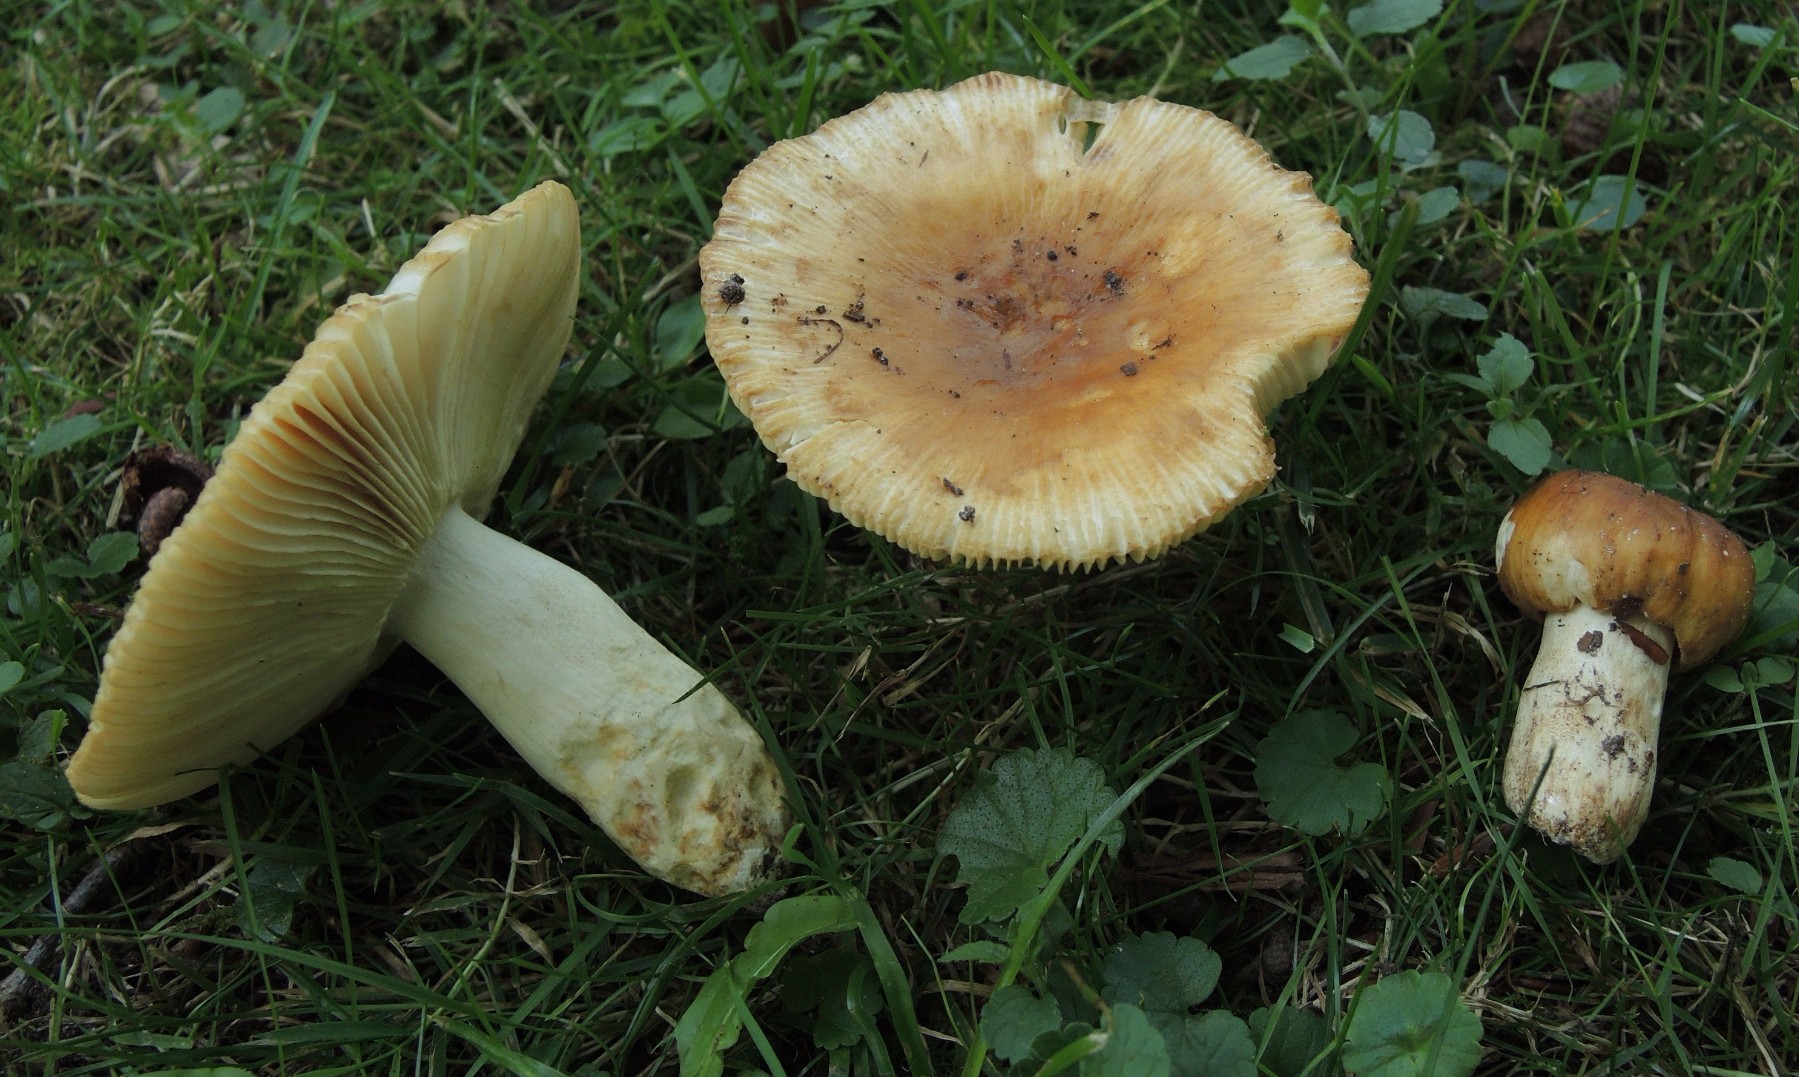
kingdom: Fungi
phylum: Basidiomycota
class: Agaricomycetes
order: Russulales
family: Russulaceae
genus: Russula
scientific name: Russula foetens
